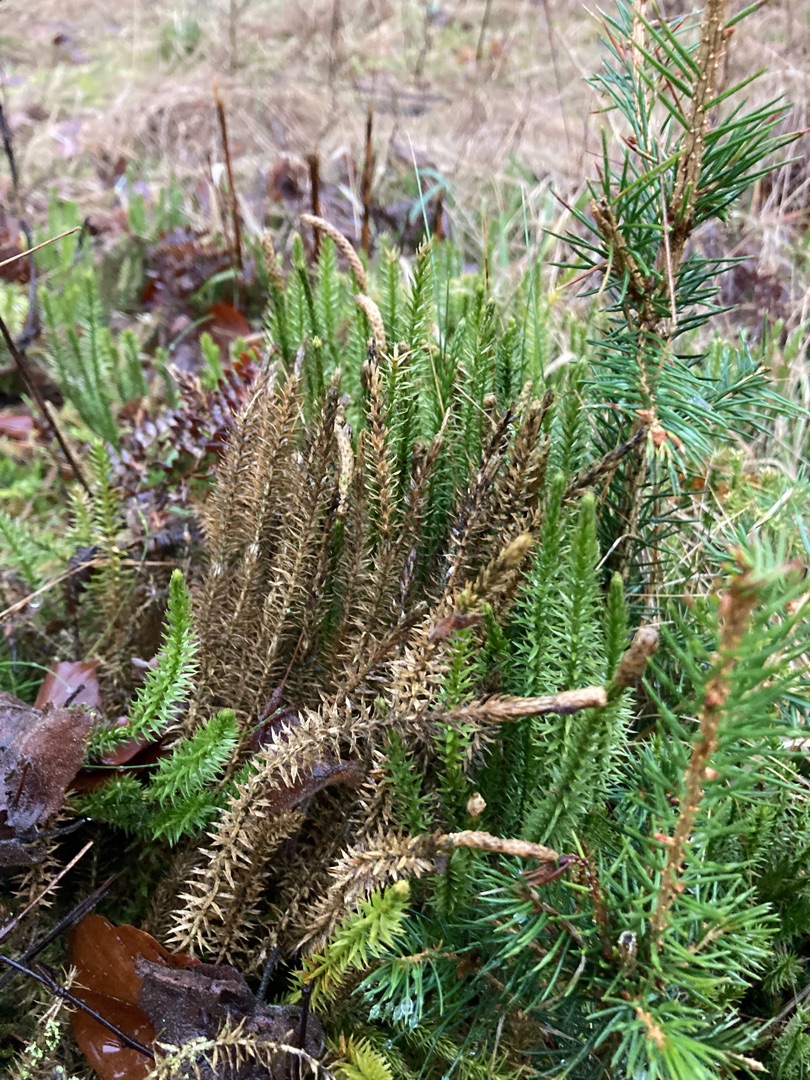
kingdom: Plantae
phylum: Tracheophyta
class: Lycopodiopsida
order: Lycopodiales
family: Lycopodiaceae
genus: Spinulum
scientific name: Spinulum annotinum
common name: Femradet ulvefod
